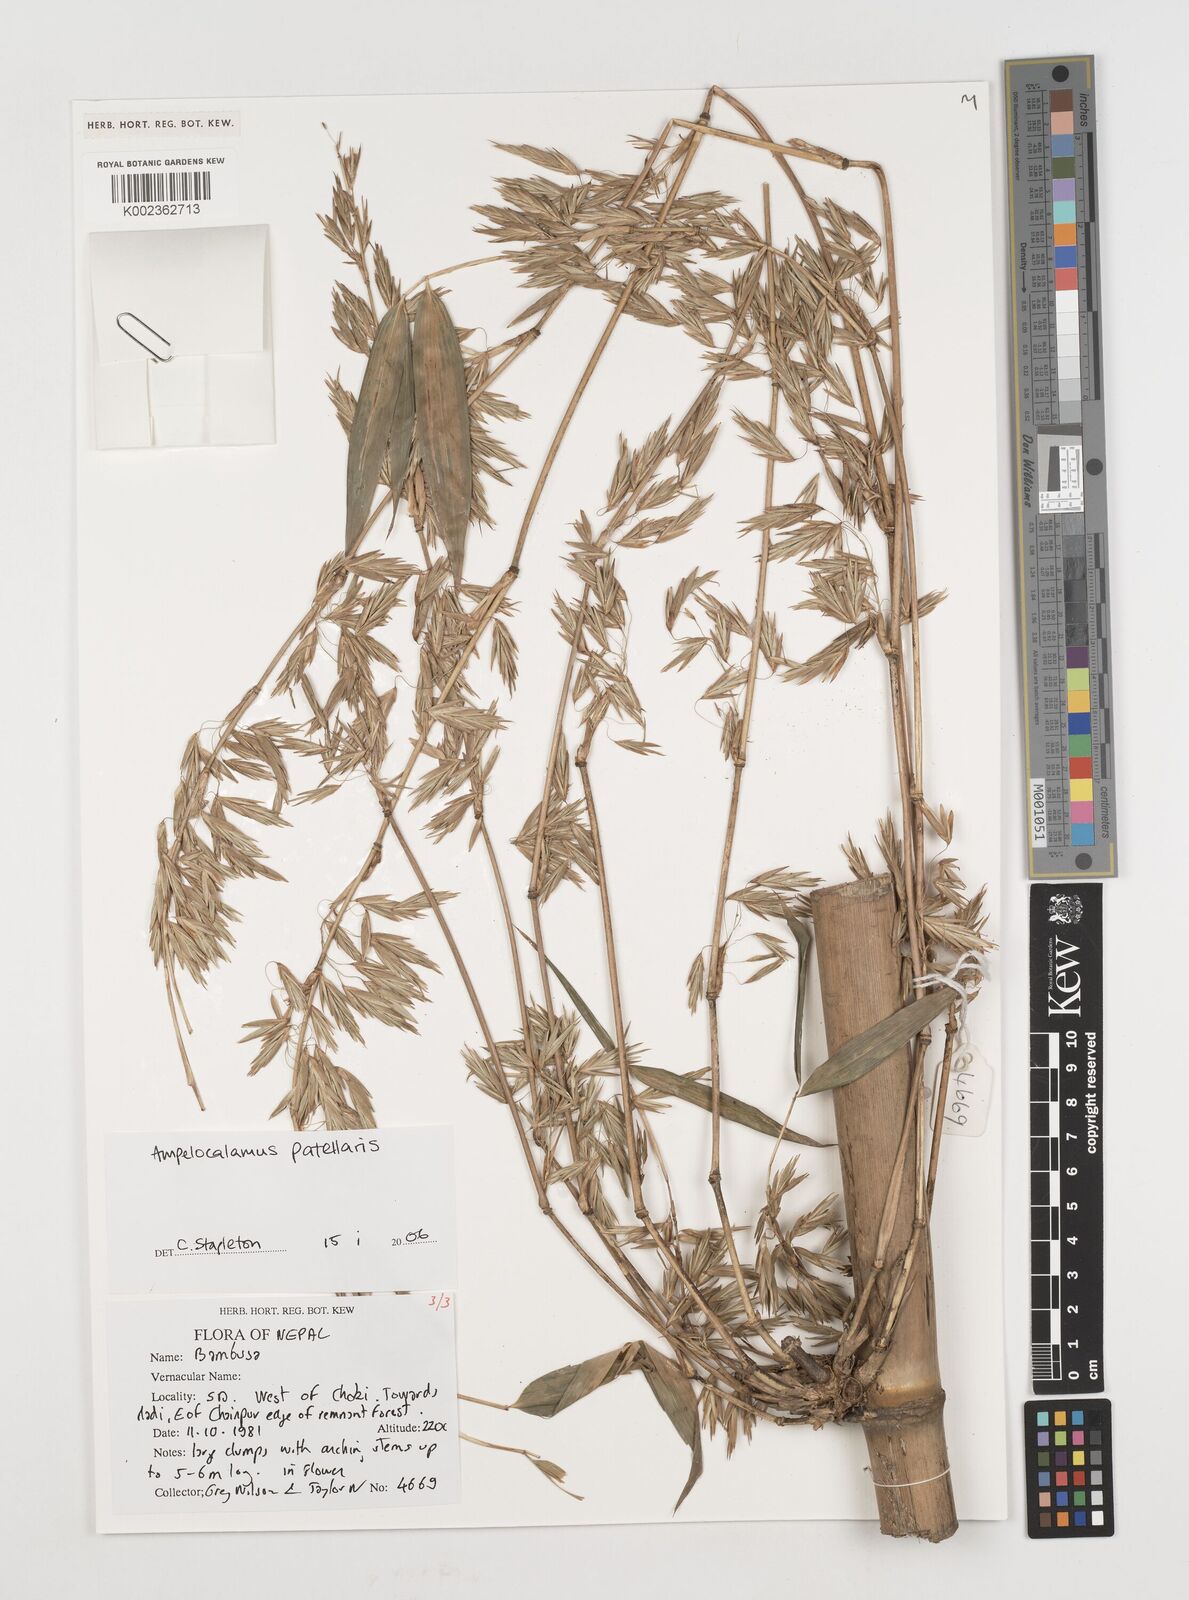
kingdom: Plantae
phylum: Tracheophyta
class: Liliopsida
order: Poales
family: Poaceae
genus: Ampelocalamus
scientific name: Ampelocalamus patellaris
